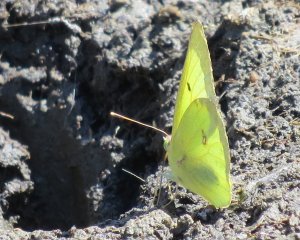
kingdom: Animalia
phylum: Arthropoda
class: Insecta
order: Lepidoptera
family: Pieridae
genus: Colias
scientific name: Colias interior
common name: Pink-edged Sulphur
